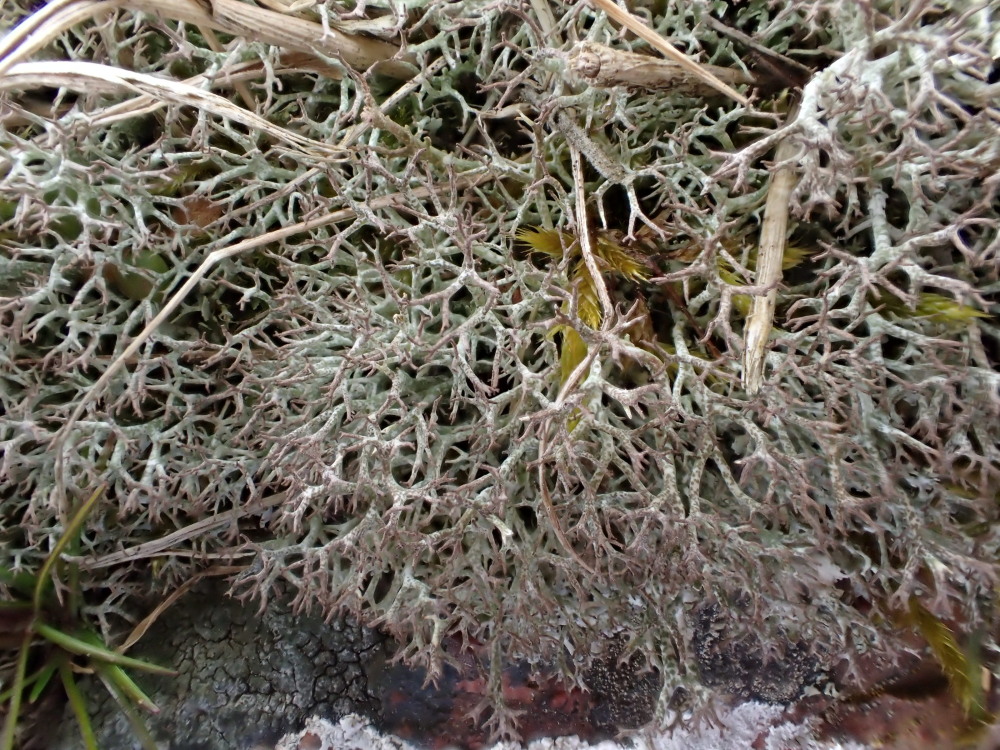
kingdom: Fungi
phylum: Ascomycota
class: Lecanoromycetes
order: Lecanorales
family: Cladoniaceae
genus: Cladonia
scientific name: Cladonia rangiformis
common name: spættet bægerlav
